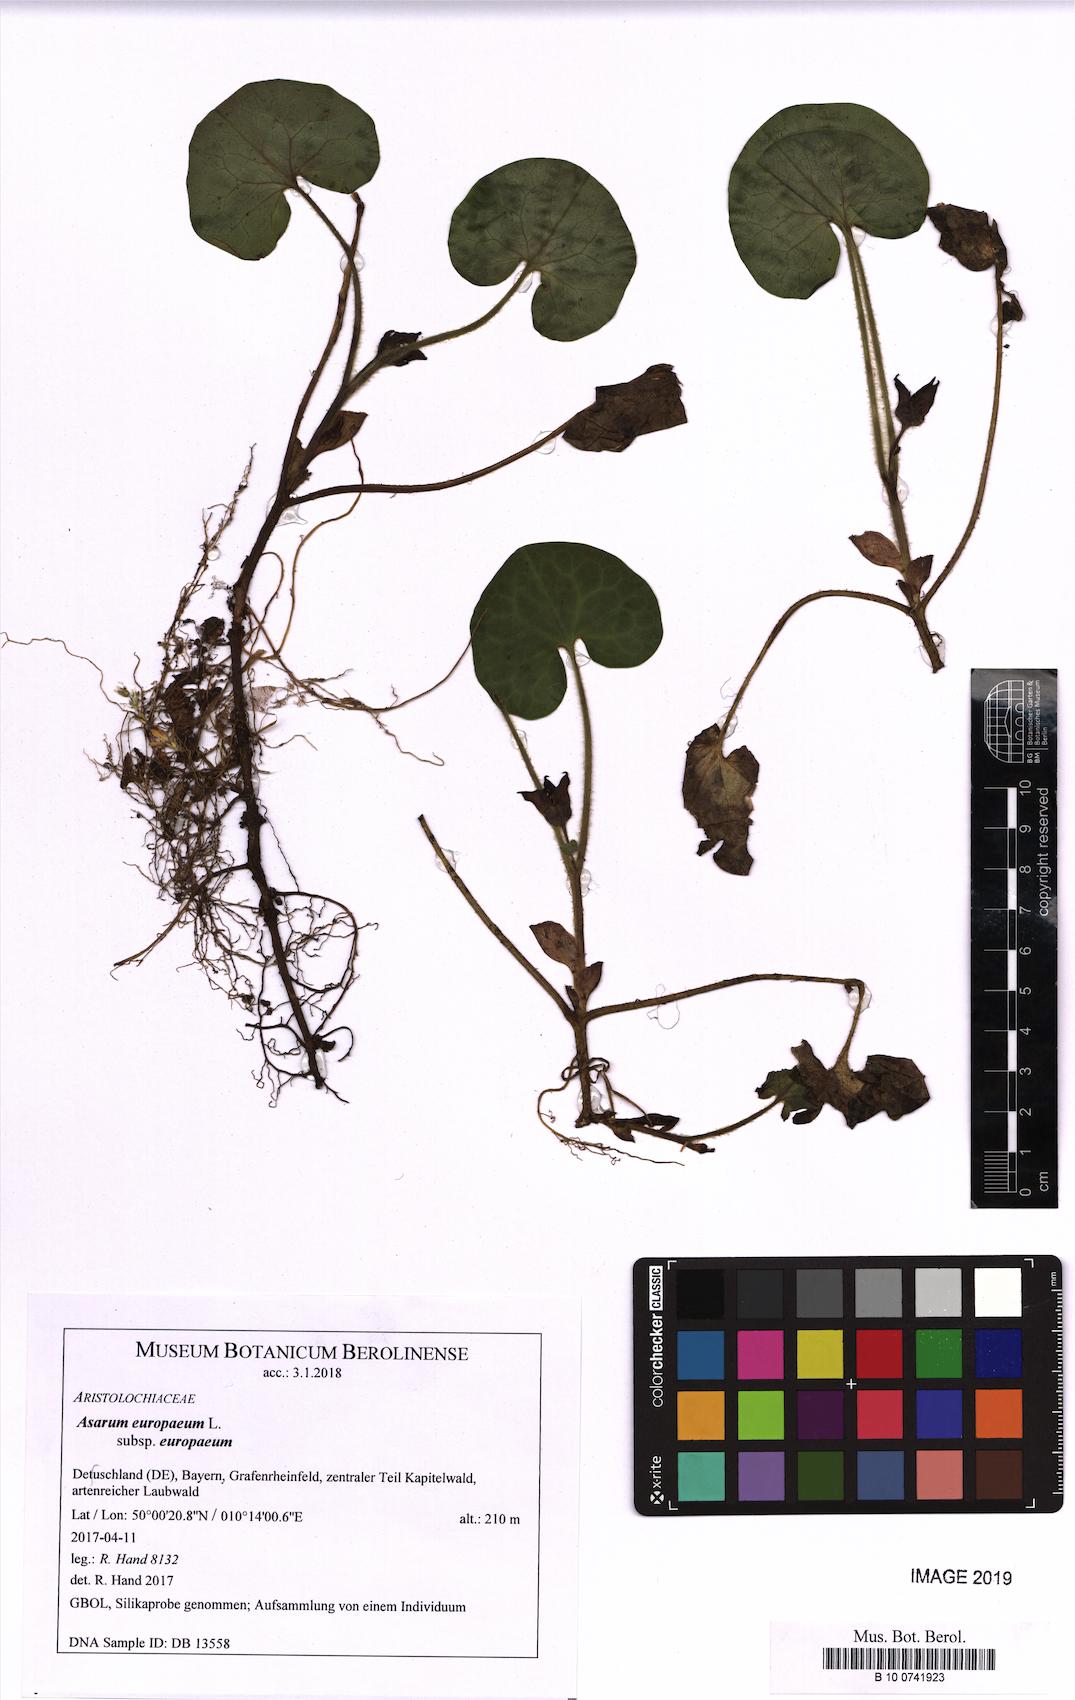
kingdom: Plantae
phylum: Tracheophyta
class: Magnoliopsida
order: Piperales
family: Aristolochiaceae
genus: Asarum
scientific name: Asarum europaeum
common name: Asarabacca
